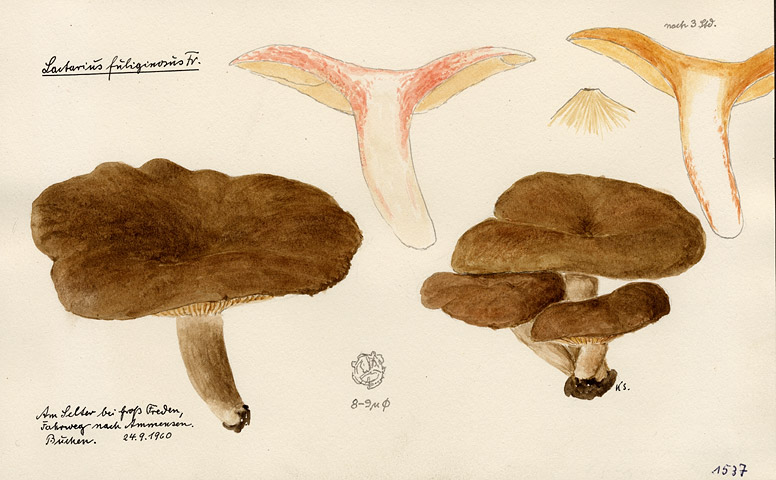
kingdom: Fungi
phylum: Basidiomycota
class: Agaricomycetes
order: Russulales
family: Russulaceae
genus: Lactarius
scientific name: Lactarius fuliginosus
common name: Sooty milkcap
